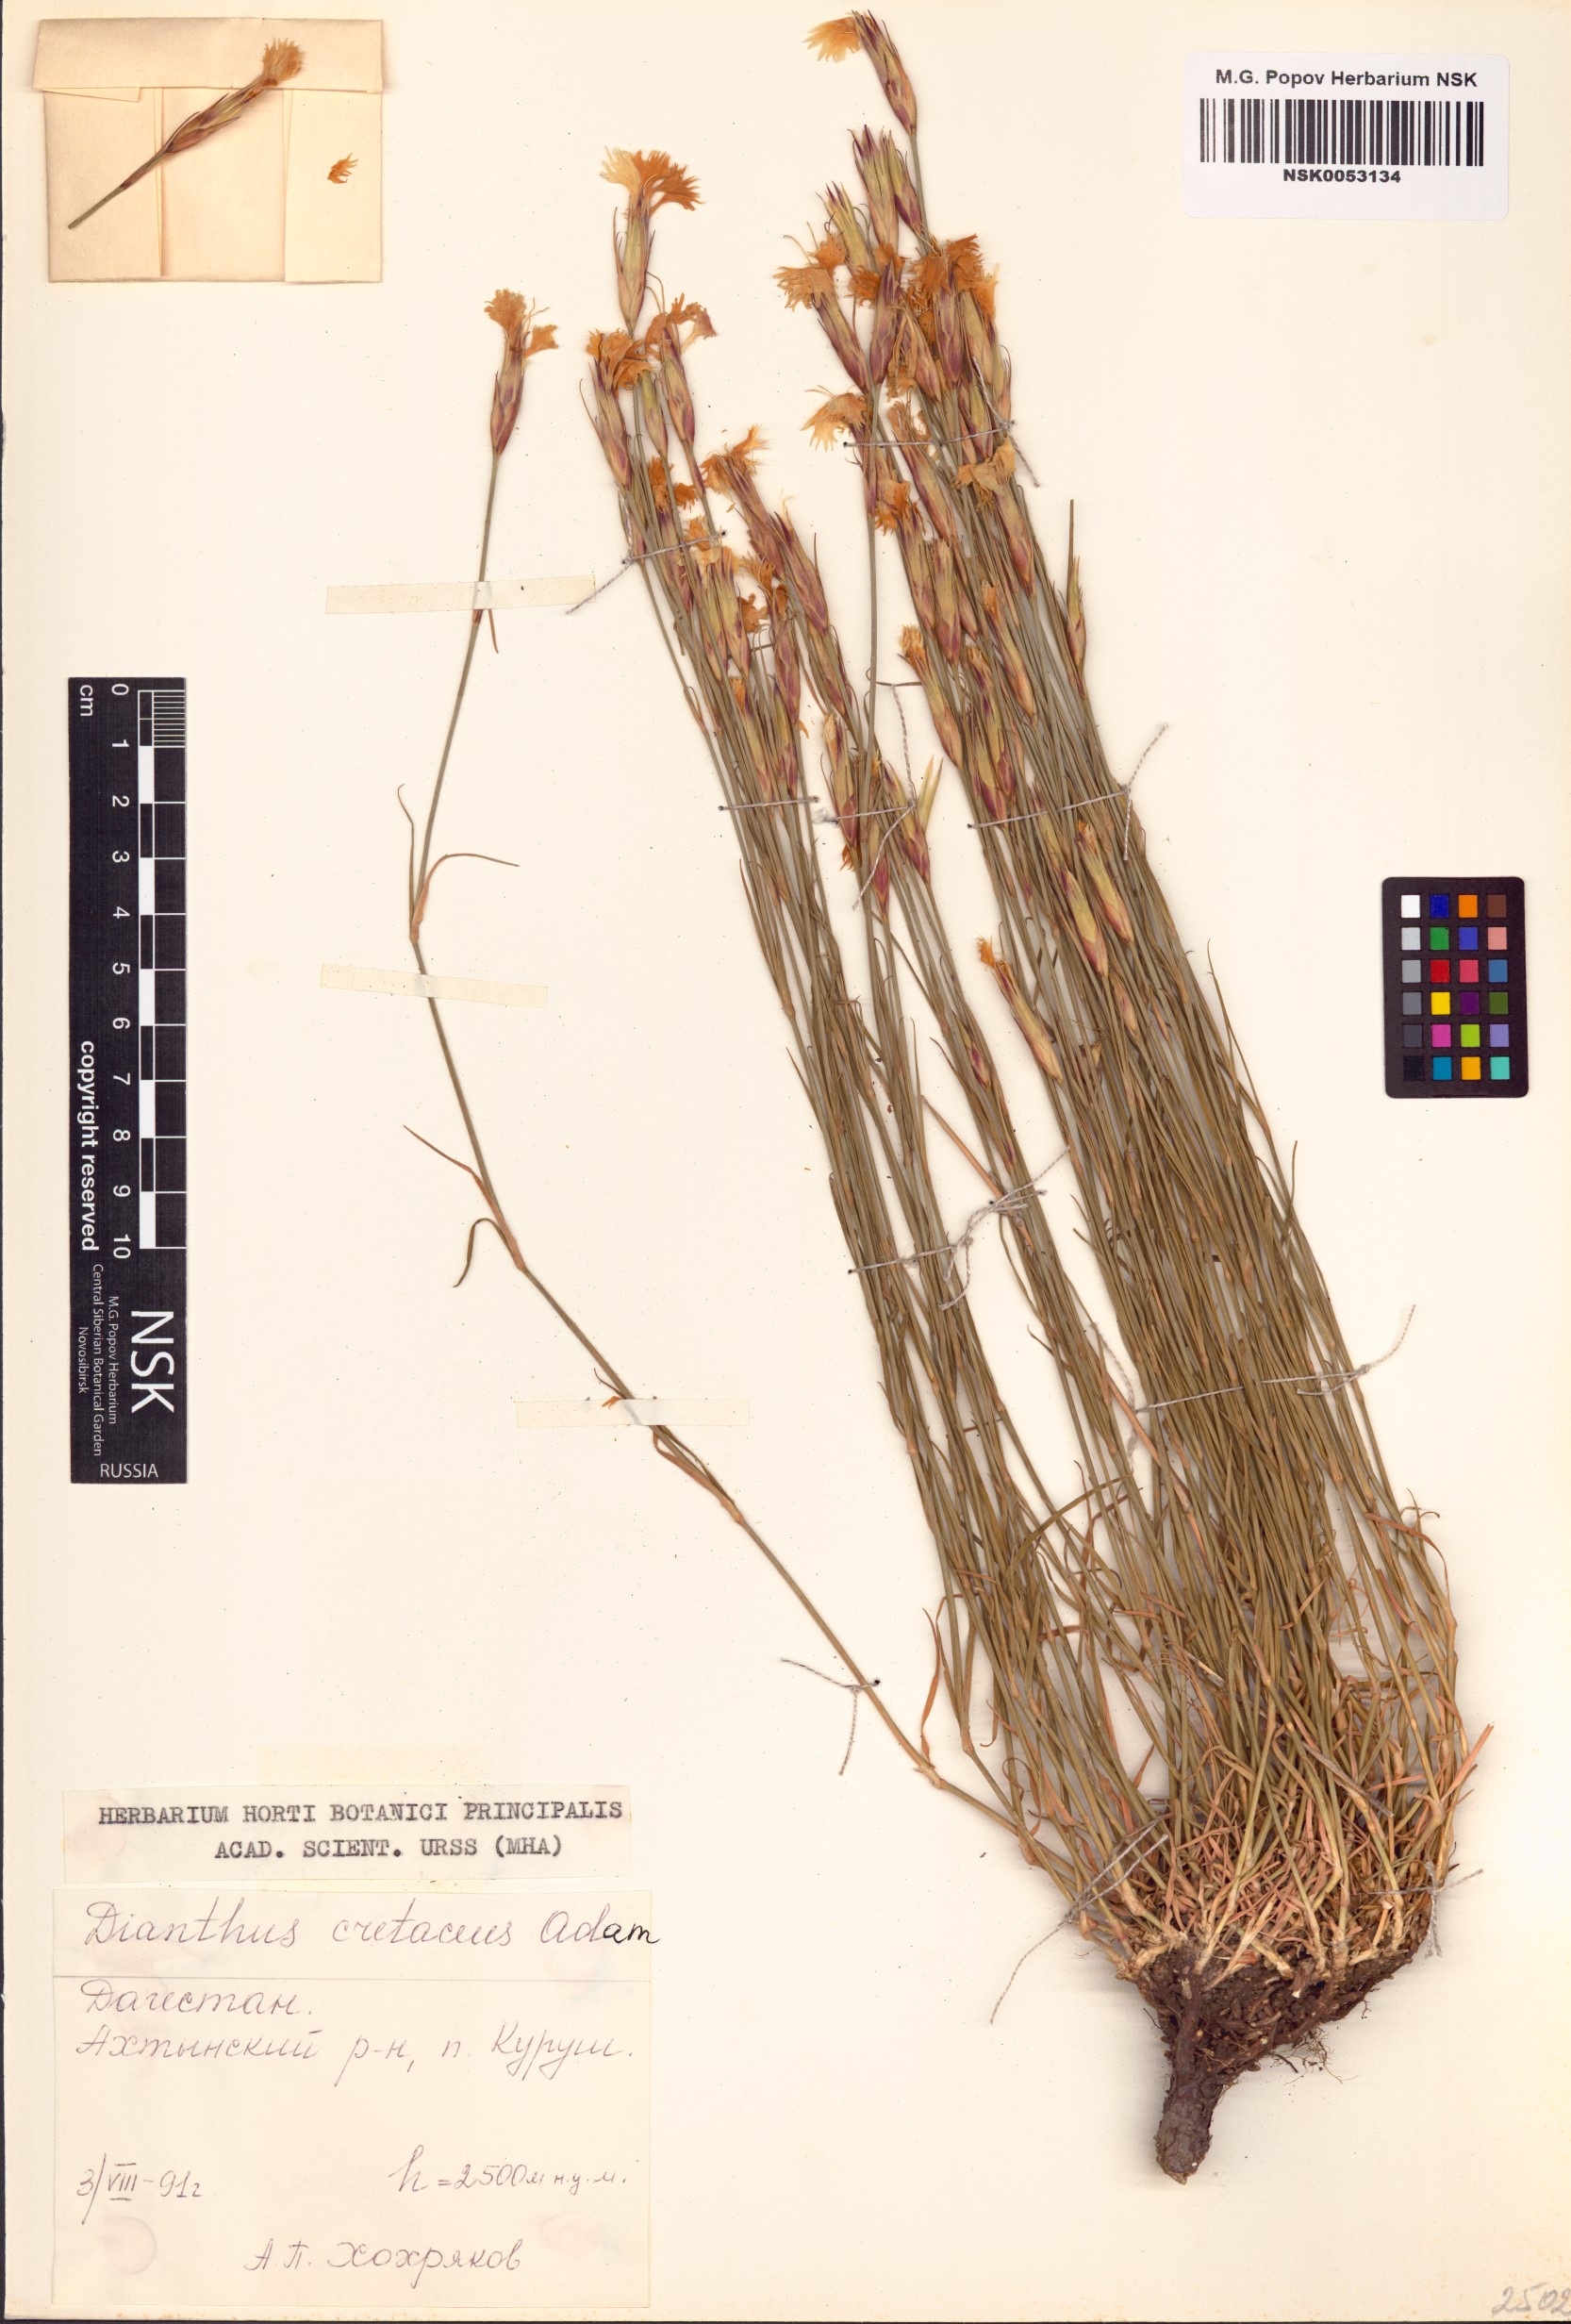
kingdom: Plantae
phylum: Tracheophyta
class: Magnoliopsida
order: Caryophyllales
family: Caryophyllaceae
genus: Dianthus
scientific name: Dianthus cretaceus
